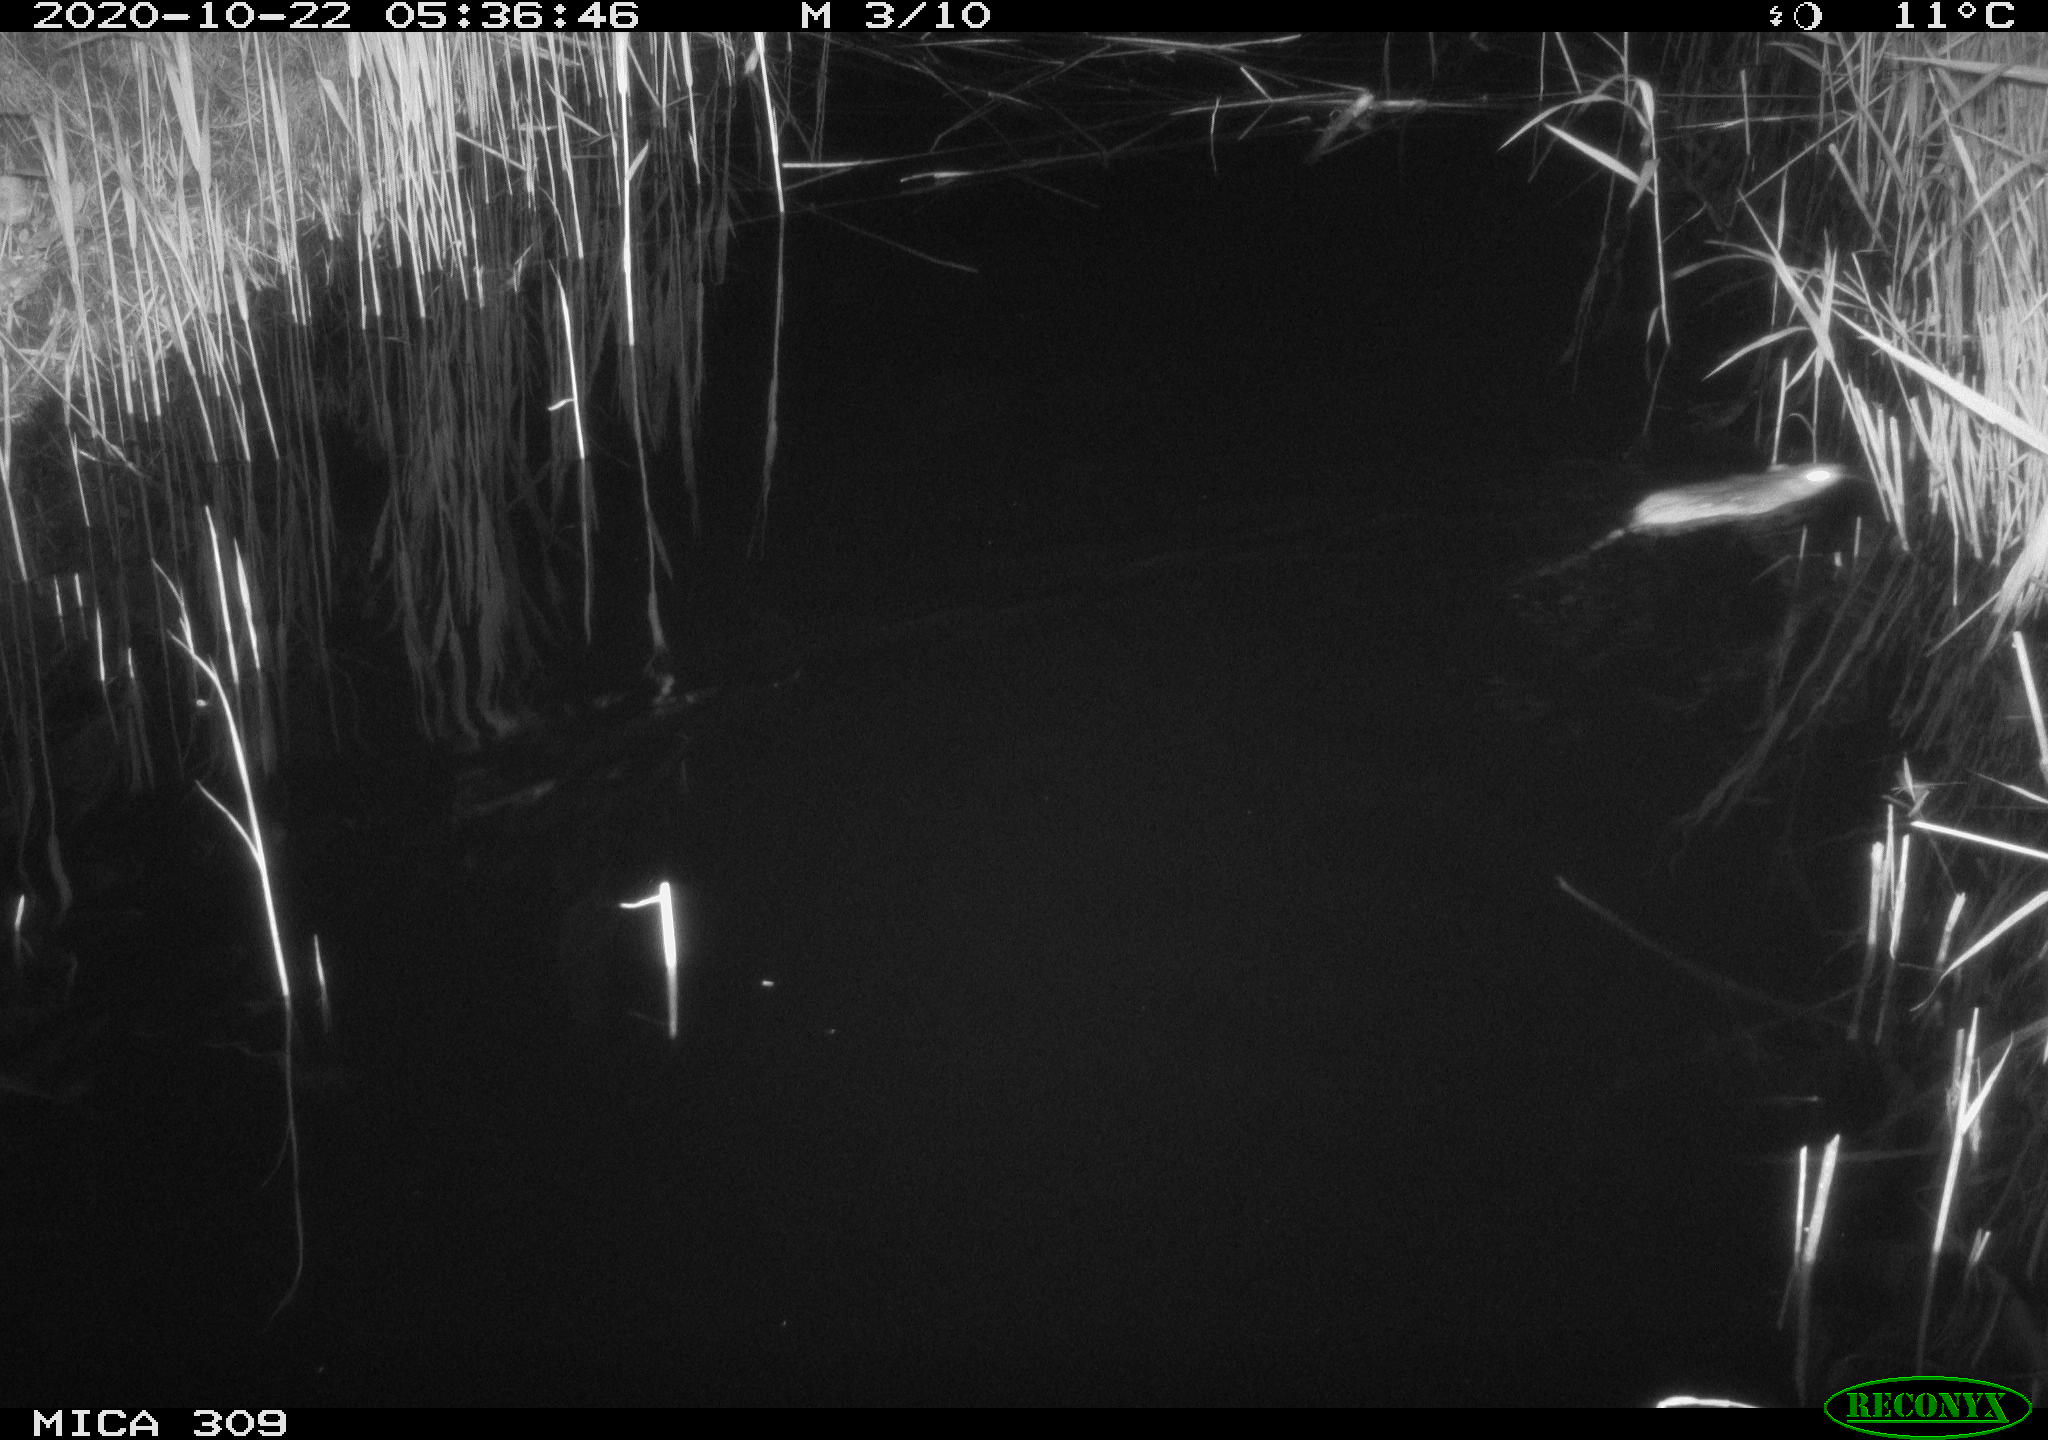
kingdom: Animalia
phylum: Chordata
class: Mammalia
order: Rodentia
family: Muridae
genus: Rattus
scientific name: Rattus norvegicus
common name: Brown rat
